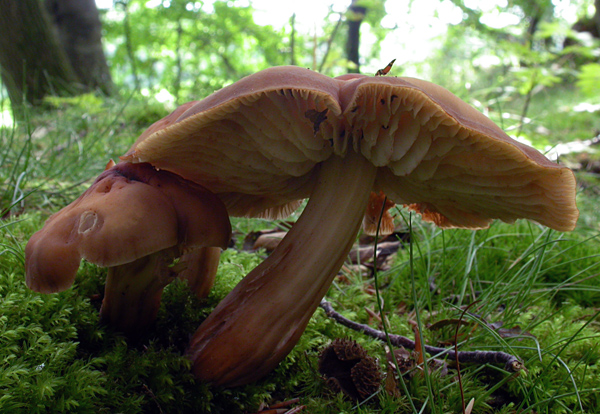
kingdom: Fungi
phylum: Basidiomycota
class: Agaricomycetes
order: Agaricales
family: Omphalotaceae
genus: Gymnopus
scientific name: Gymnopus fusipes
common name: tenstokket fladhat
